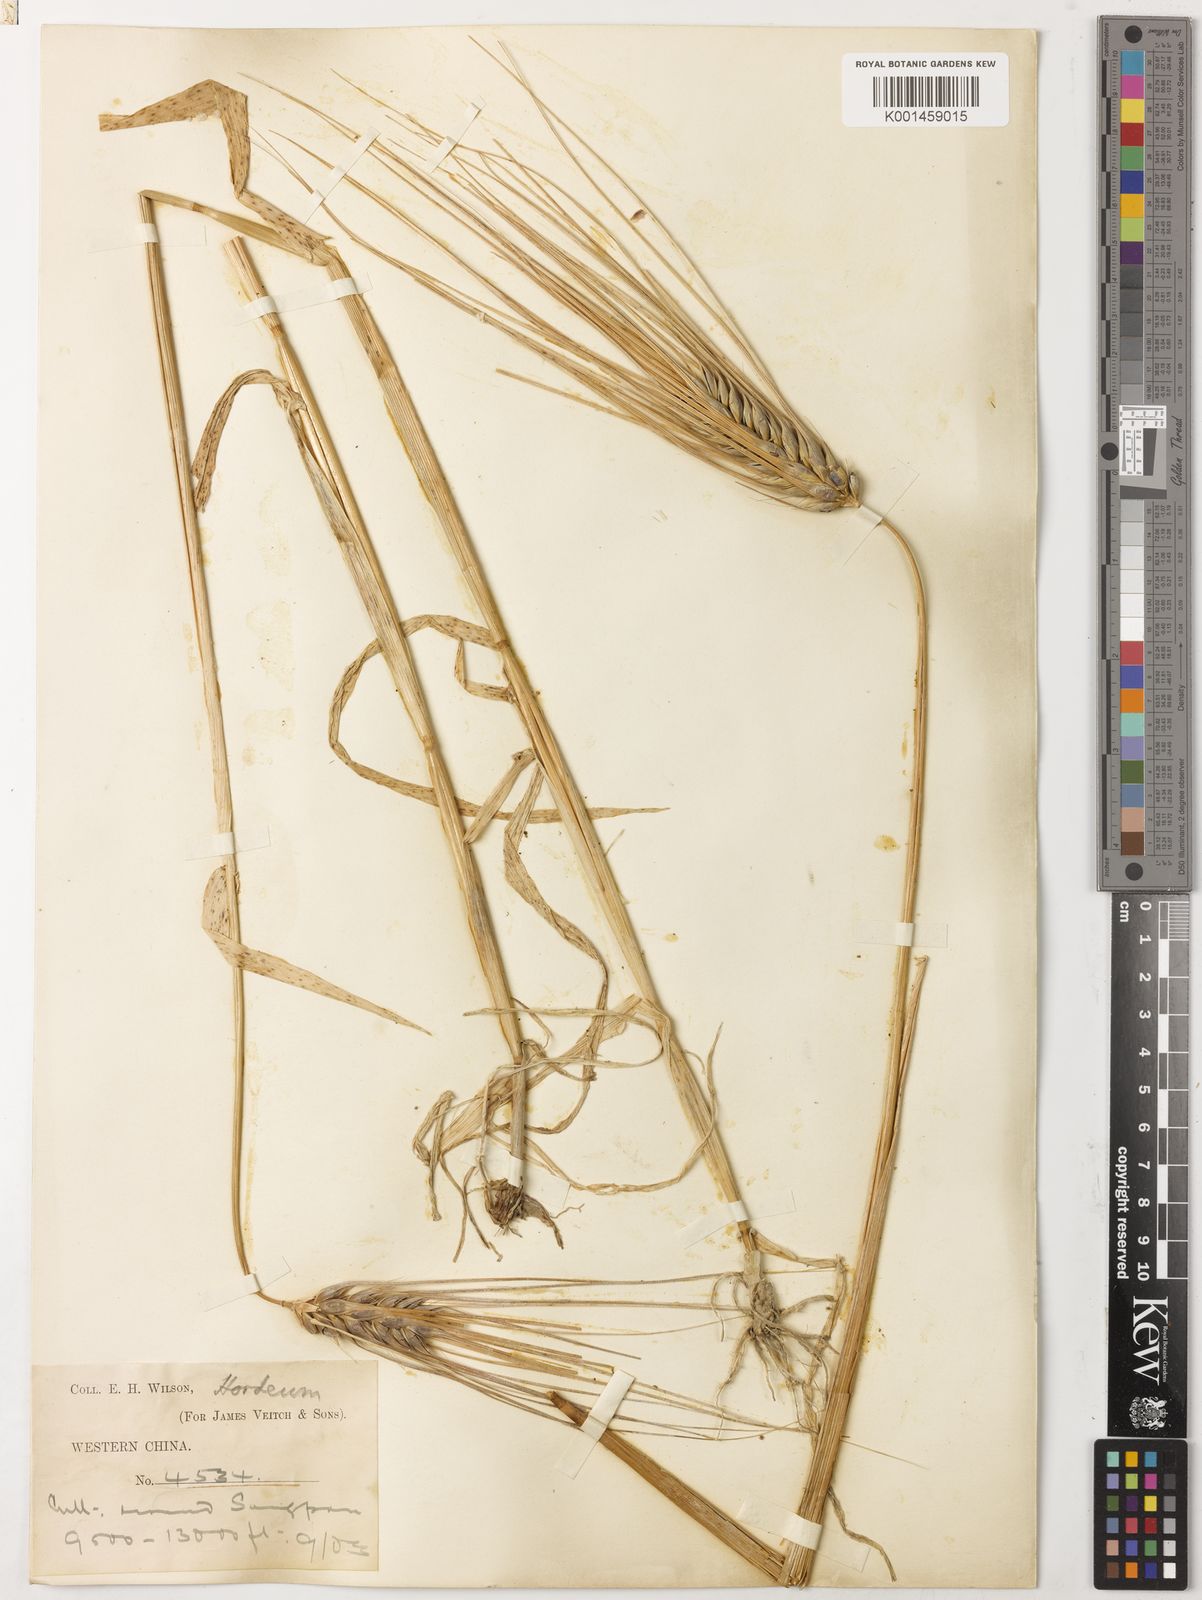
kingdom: Plantae
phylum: Tracheophyta
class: Liliopsida
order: Poales
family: Poaceae
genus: Hordeum
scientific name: Hordeum vulgare
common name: Common barley
